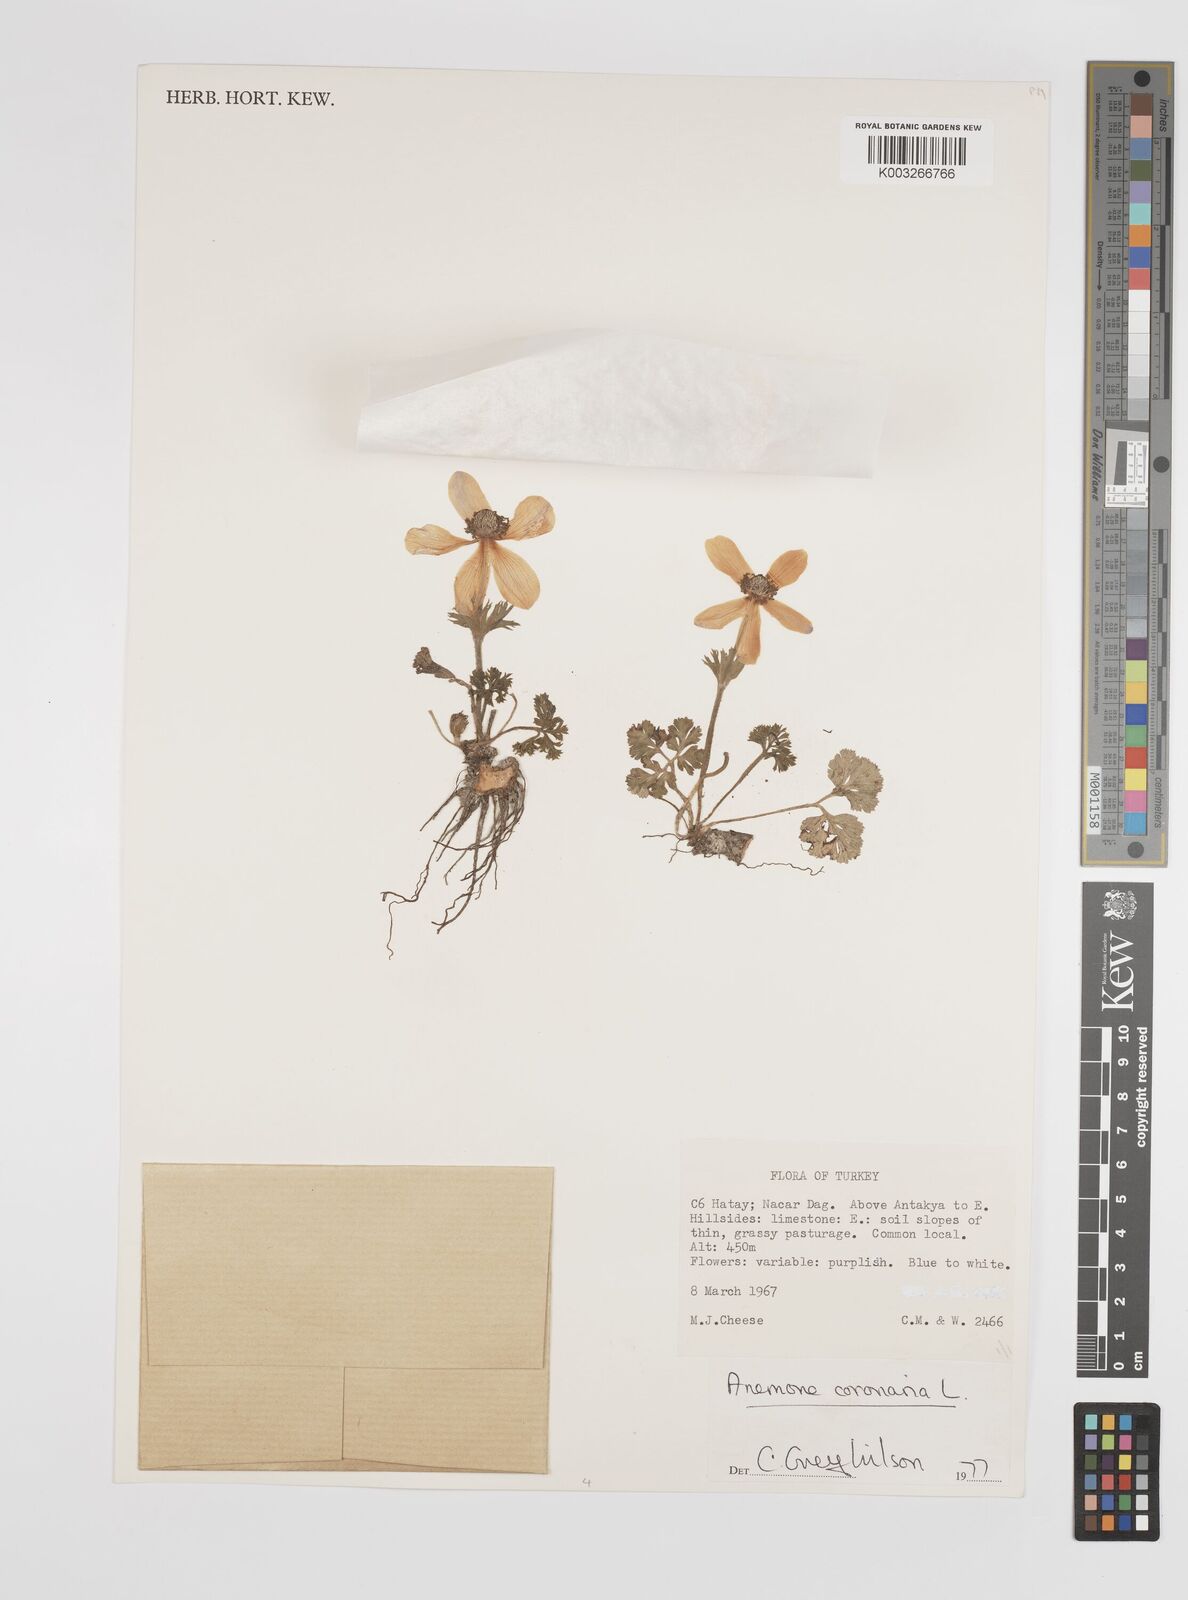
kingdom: Plantae
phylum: Tracheophyta
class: Magnoliopsida
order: Ranunculales
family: Ranunculaceae
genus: Anemone
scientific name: Anemone coronaria
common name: Poppy anemone
